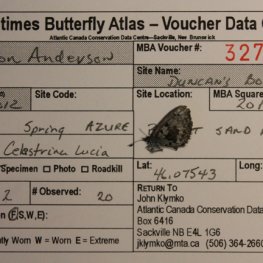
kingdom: Animalia
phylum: Arthropoda
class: Insecta
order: Lepidoptera
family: Lycaenidae
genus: Celastrina
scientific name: Celastrina lucia
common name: Northern Spring Azure
